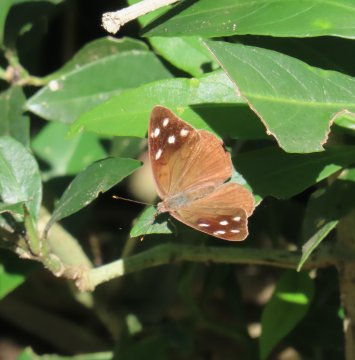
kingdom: Animalia
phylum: Arthropoda
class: Insecta
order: Lepidoptera
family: Nymphalidae
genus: Eunica
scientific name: Eunica monima
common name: Dingy Purplewing
